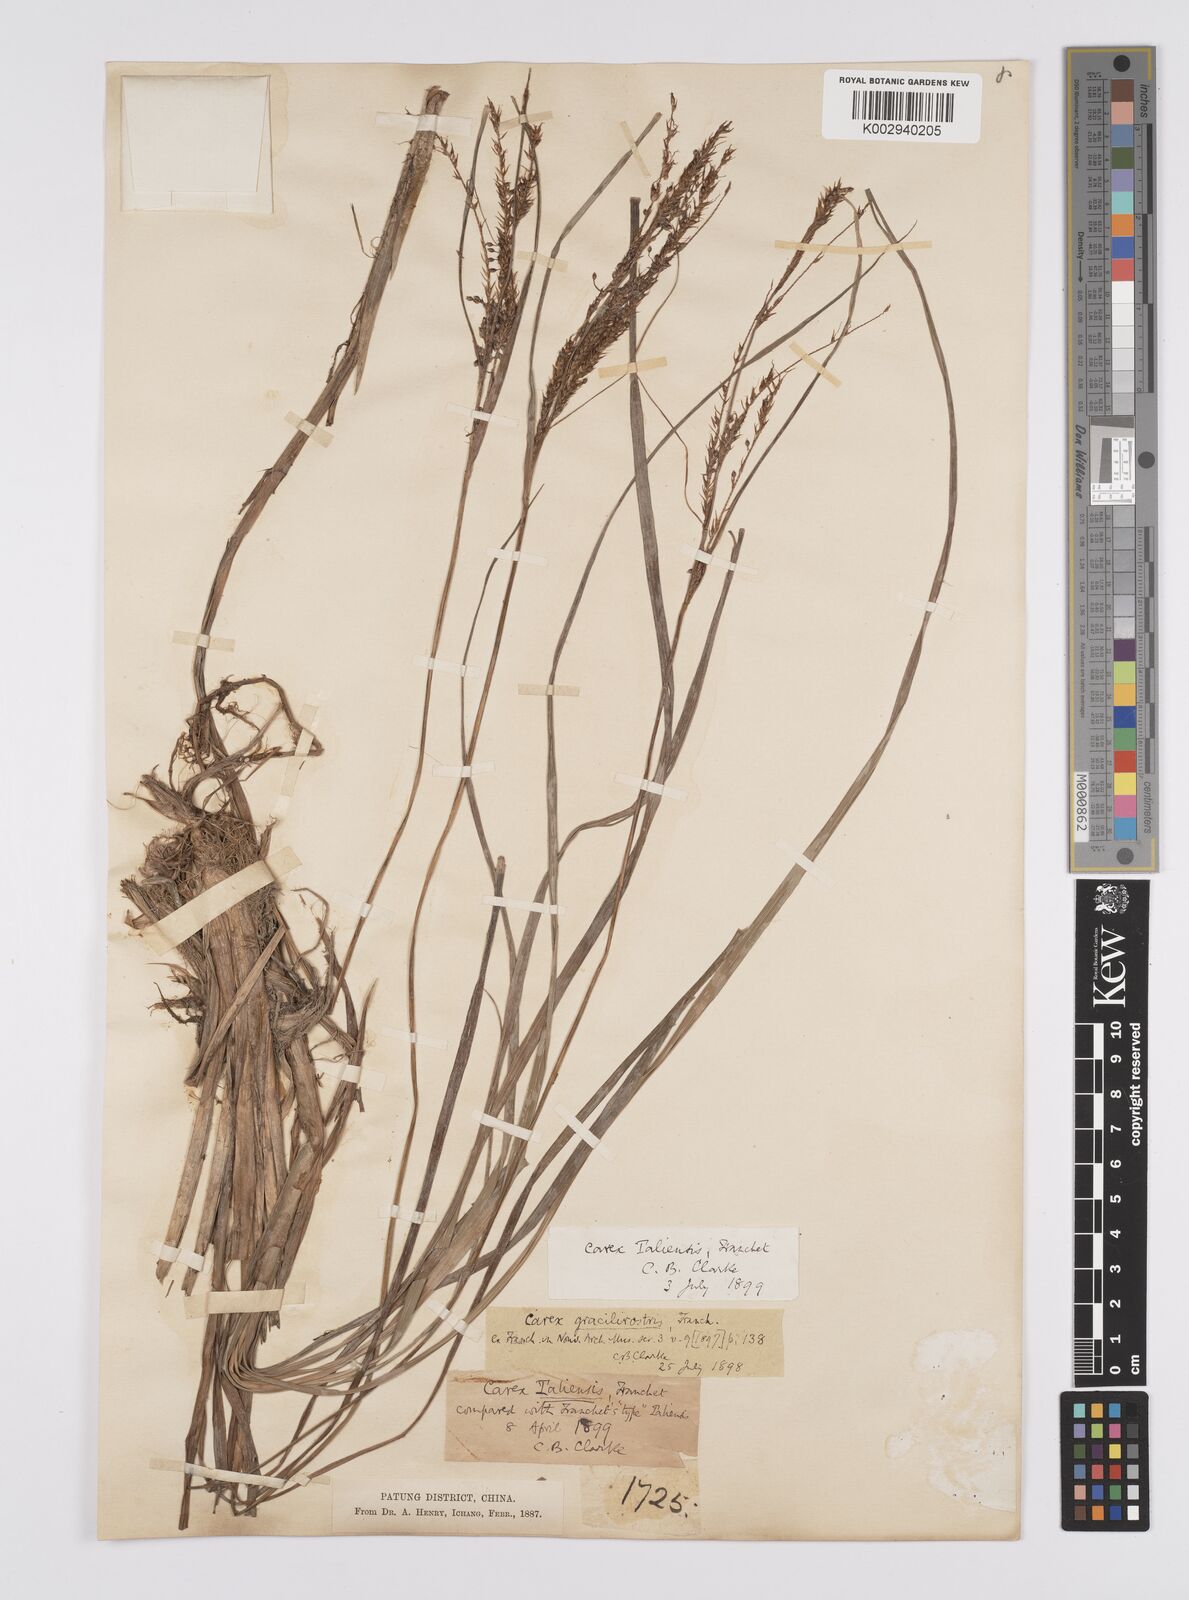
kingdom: Plantae
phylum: Tracheophyta
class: Liliopsida
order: Poales
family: Cyperaceae
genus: Carex
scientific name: Carex rubrobrunnea
